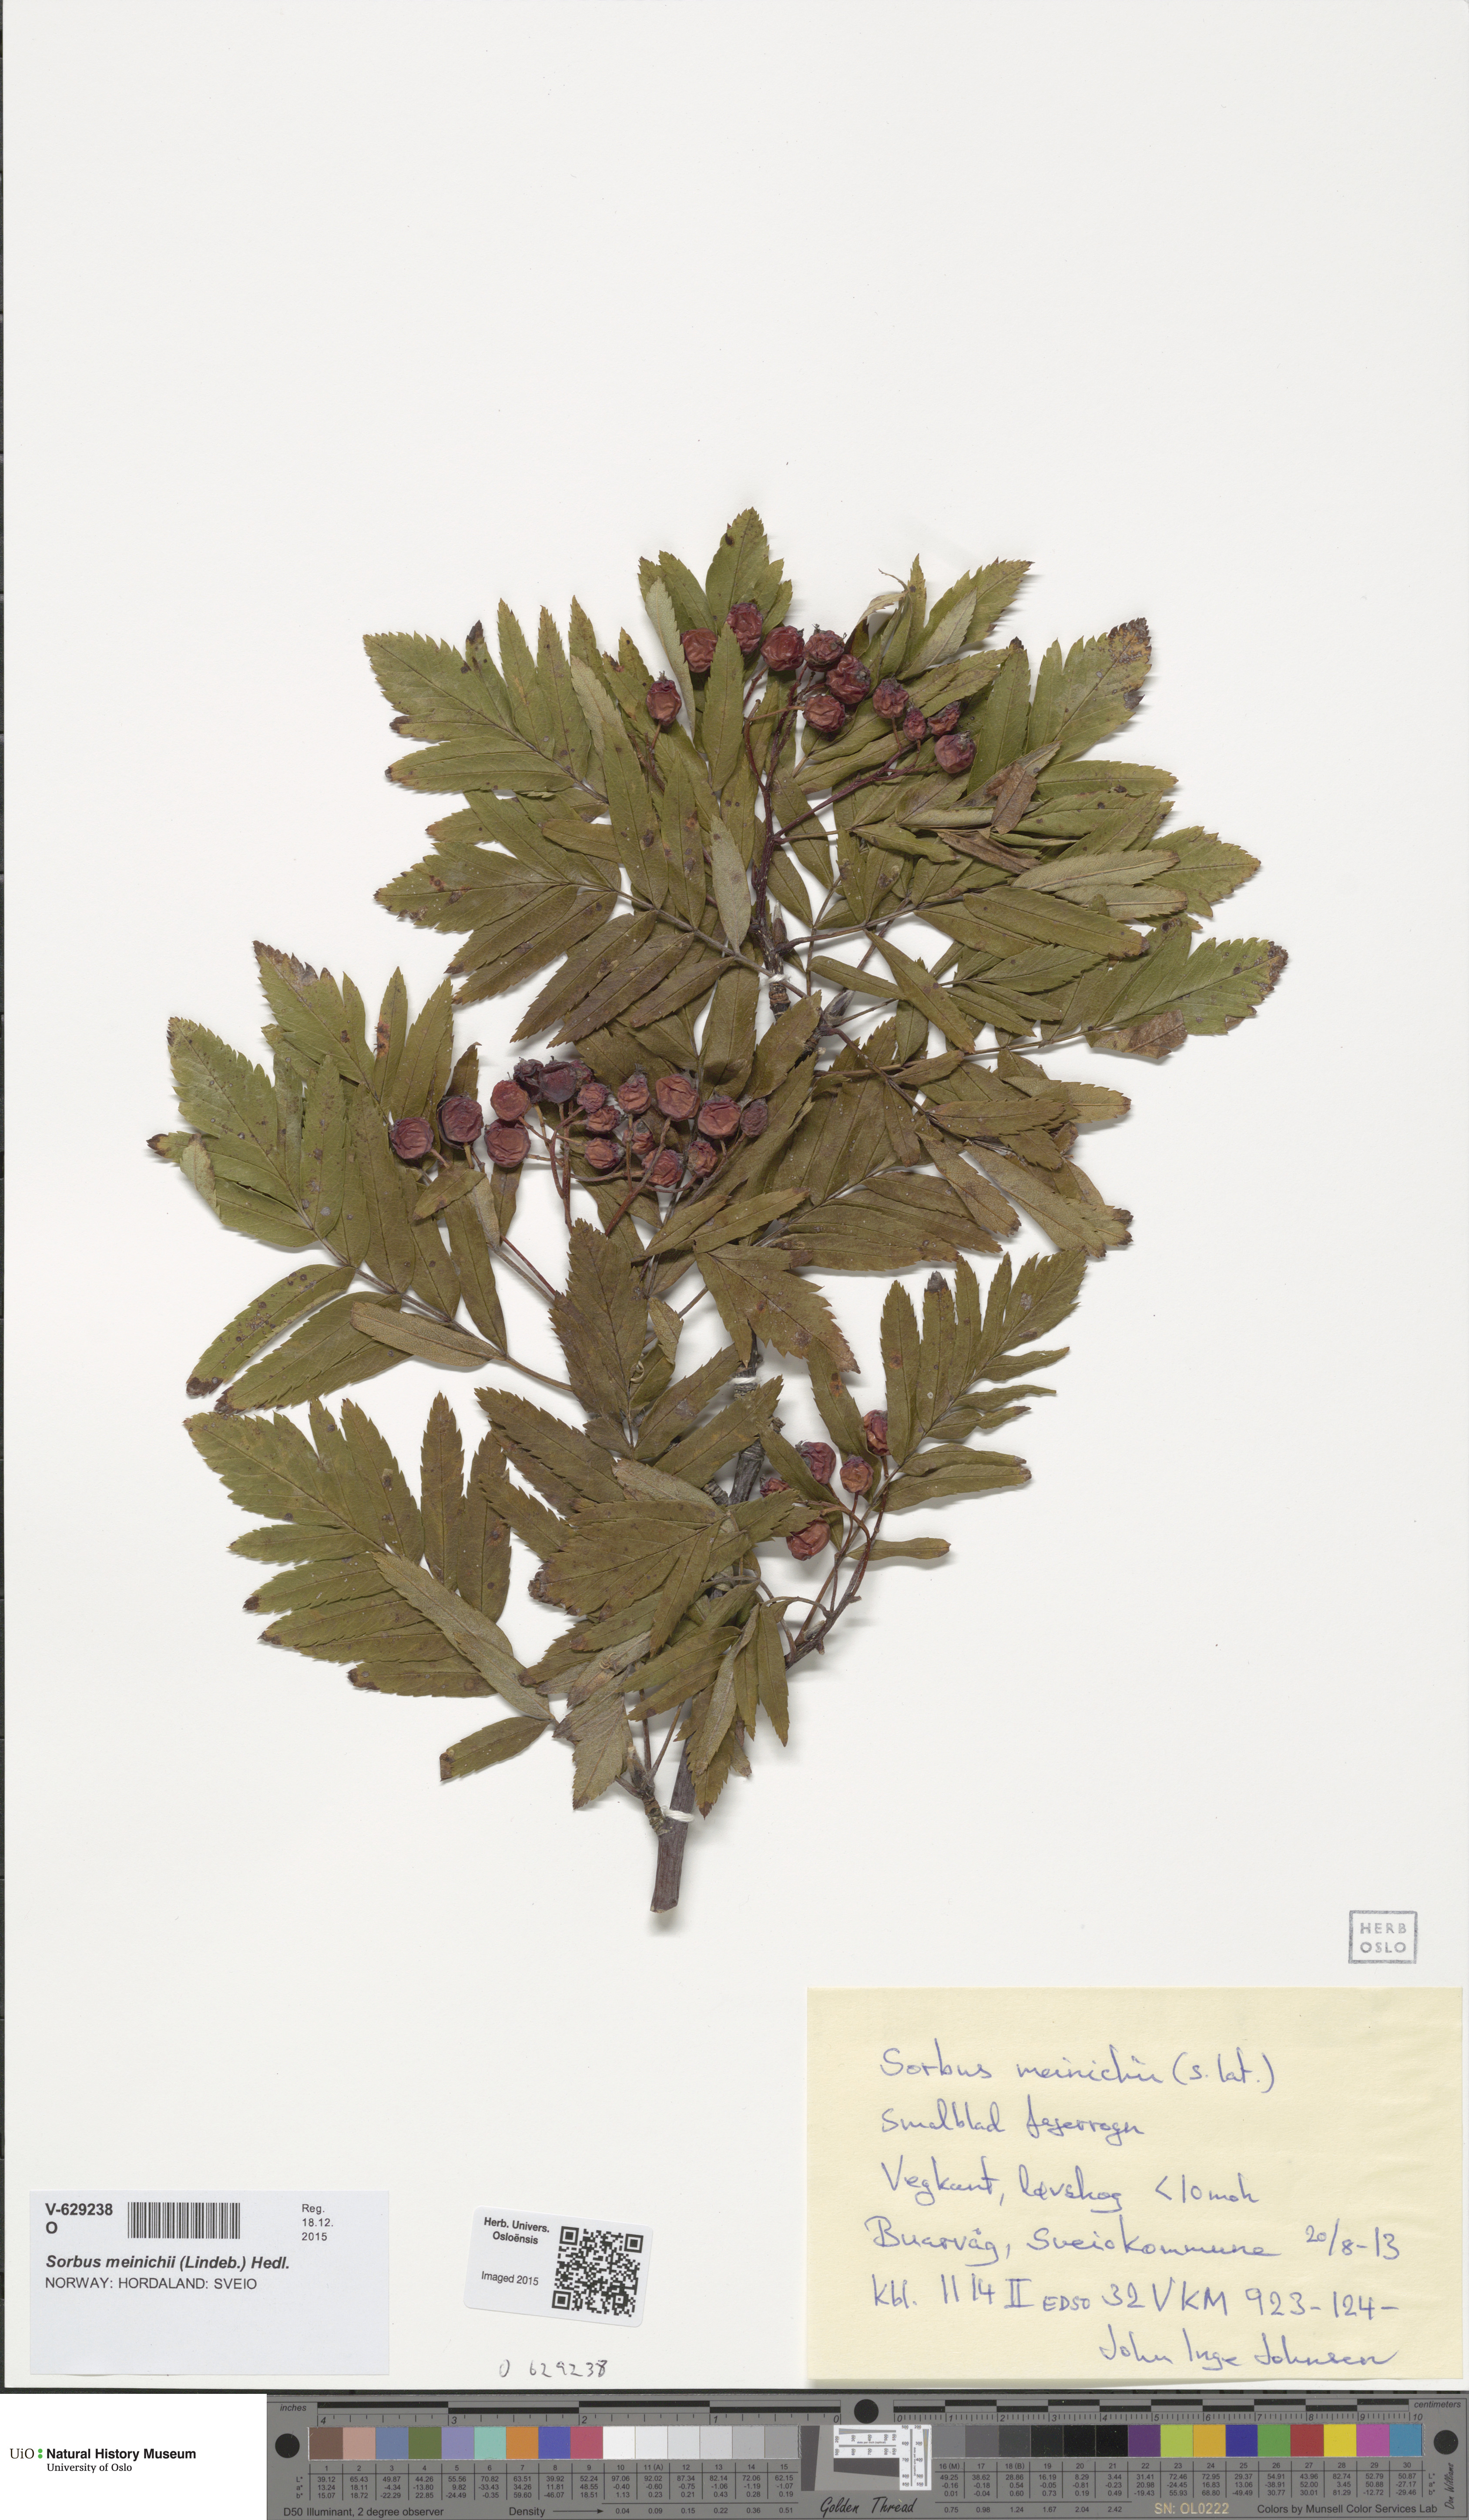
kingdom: Plantae
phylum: Tracheophyta
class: Magnoliopsida
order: Rosales
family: Rosaceae
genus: Hedlundia
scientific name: Hedlundia meinichii
